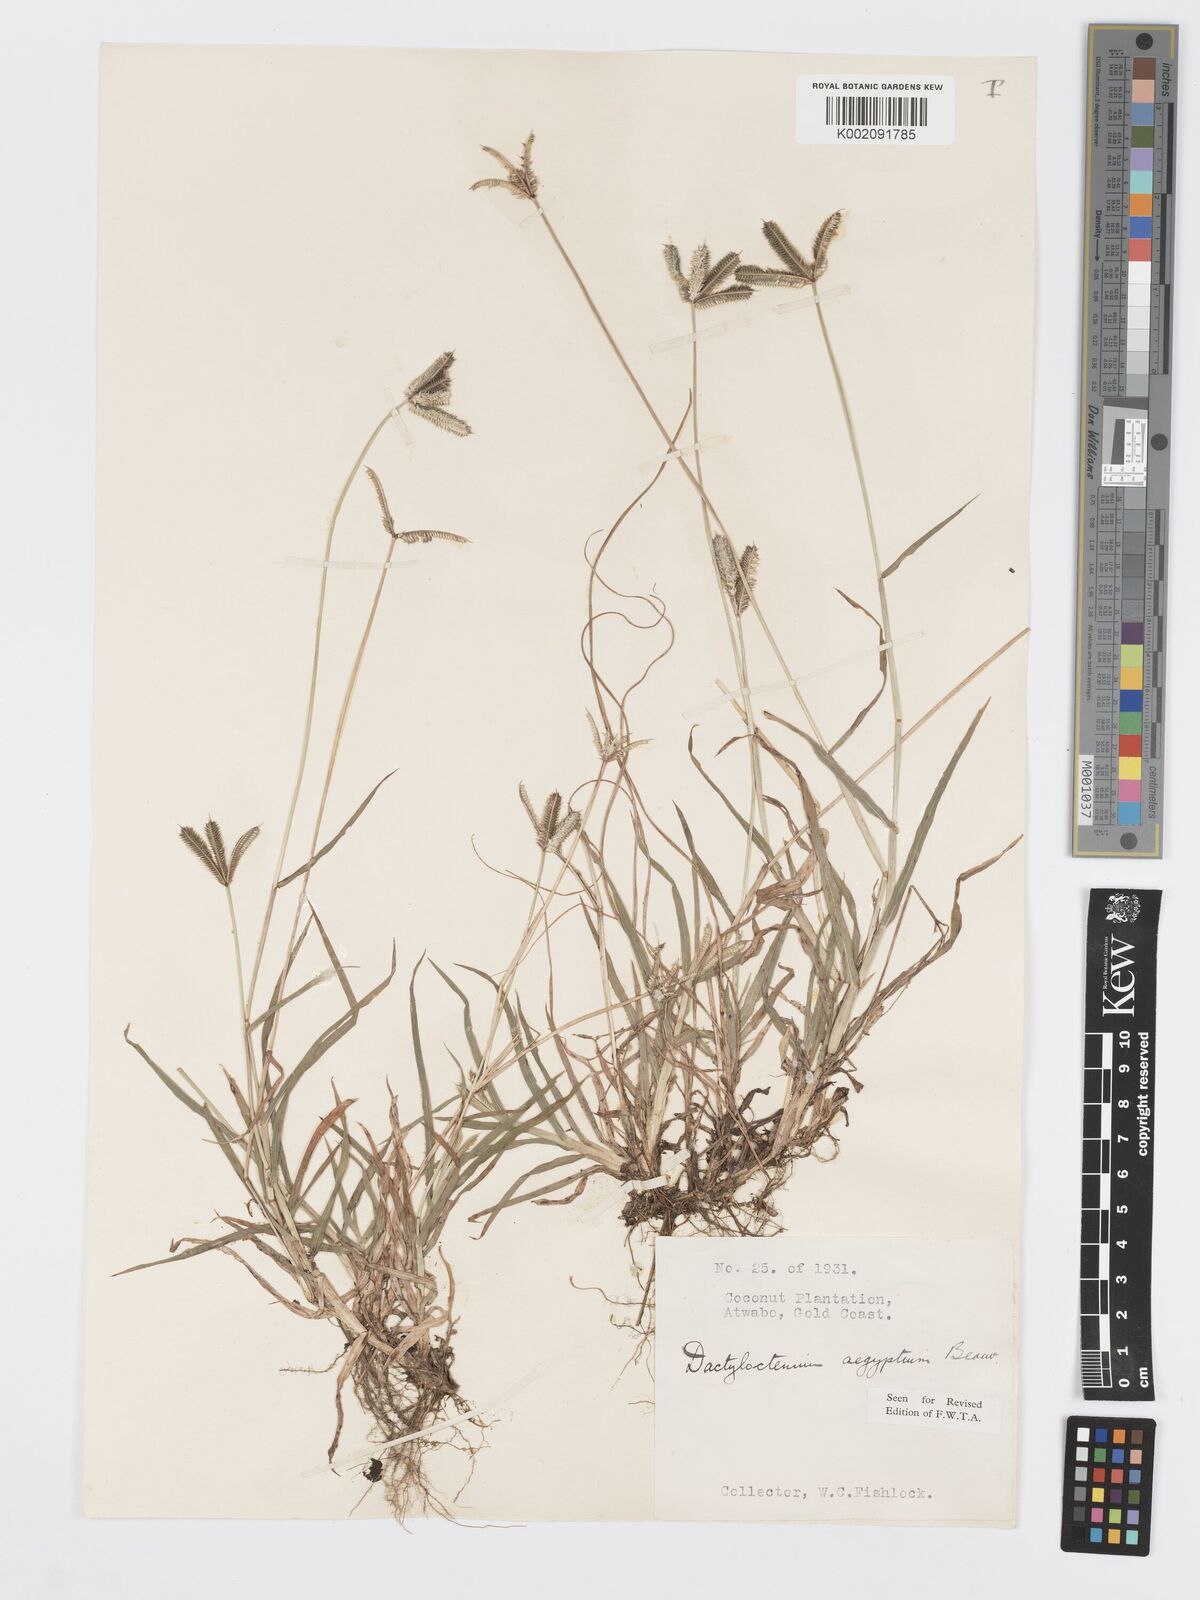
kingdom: Plantae
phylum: Tracheophyta
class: Liliopsida
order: Poales
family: Poaceae
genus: Dactyloctenium
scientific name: Dactyloctenium aegyptium
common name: Egyptian grass
